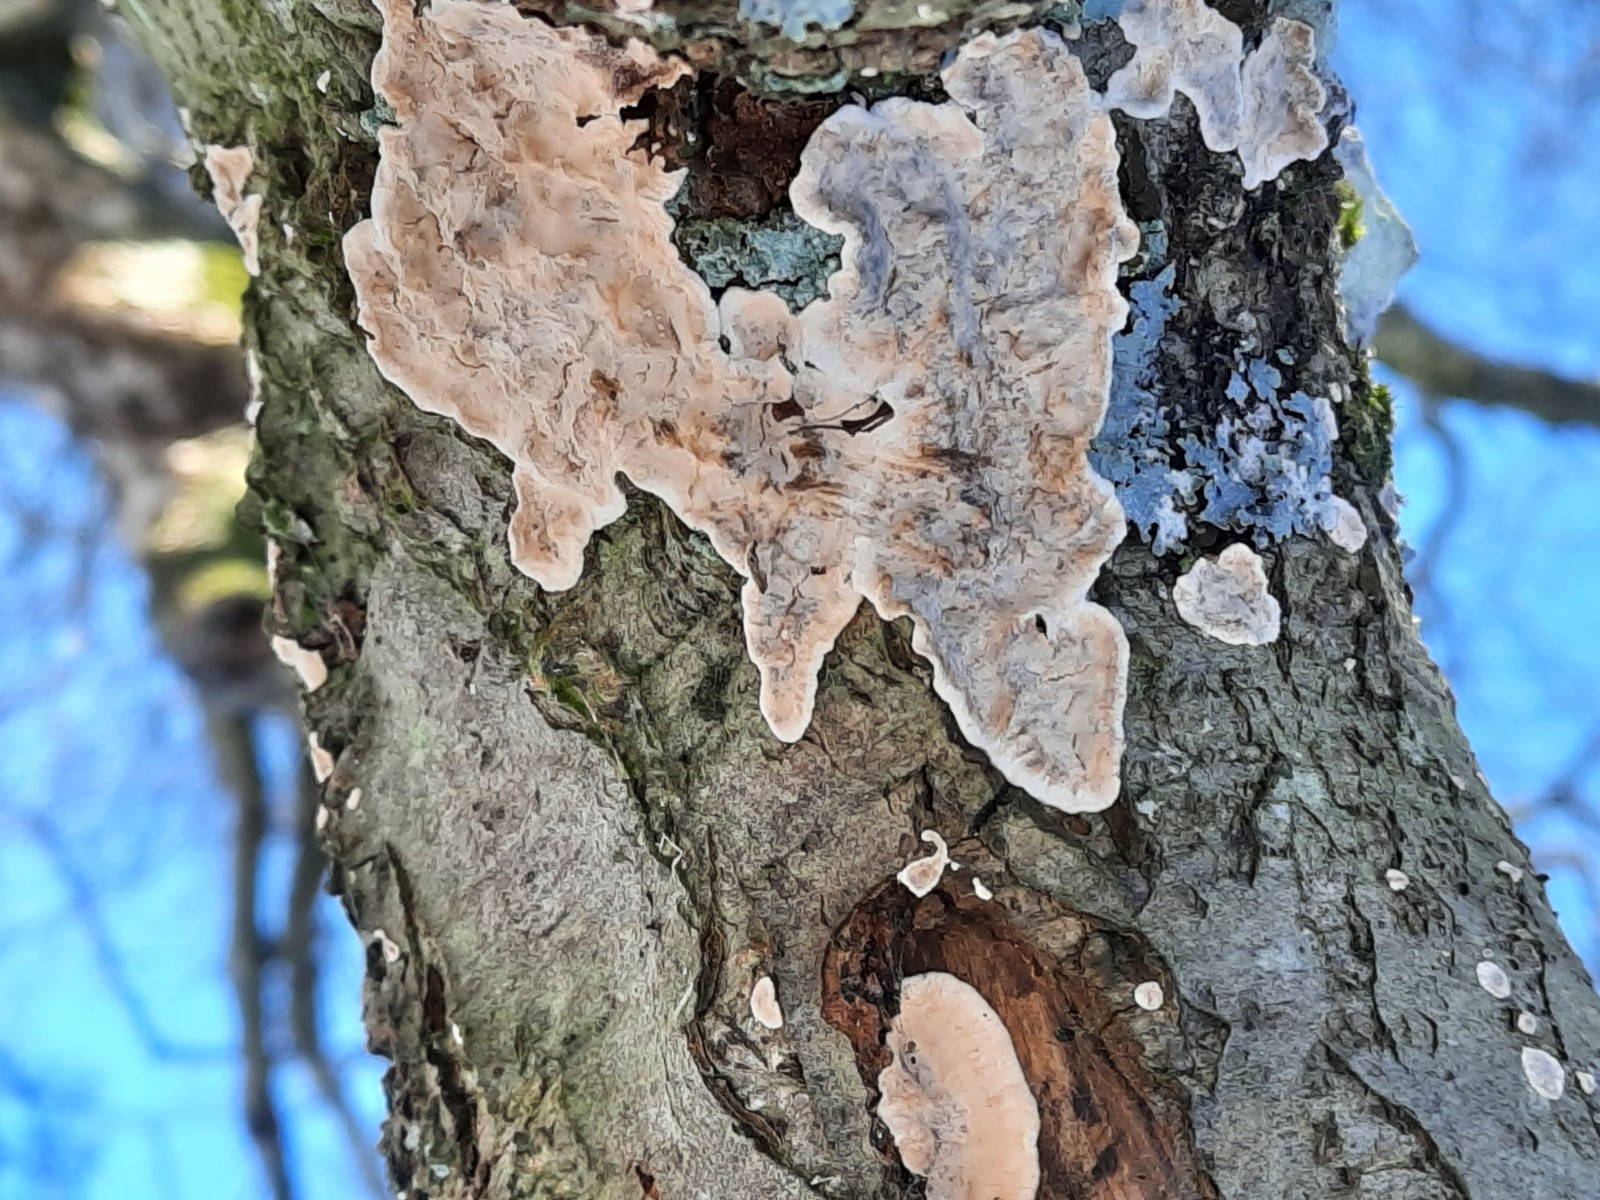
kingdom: Fungi
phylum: Basidiomycota
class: Agaricomycetes
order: Russulales
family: Stereaceae
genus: Stereum
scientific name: Stereum rugosum
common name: rynket lædersvamp
